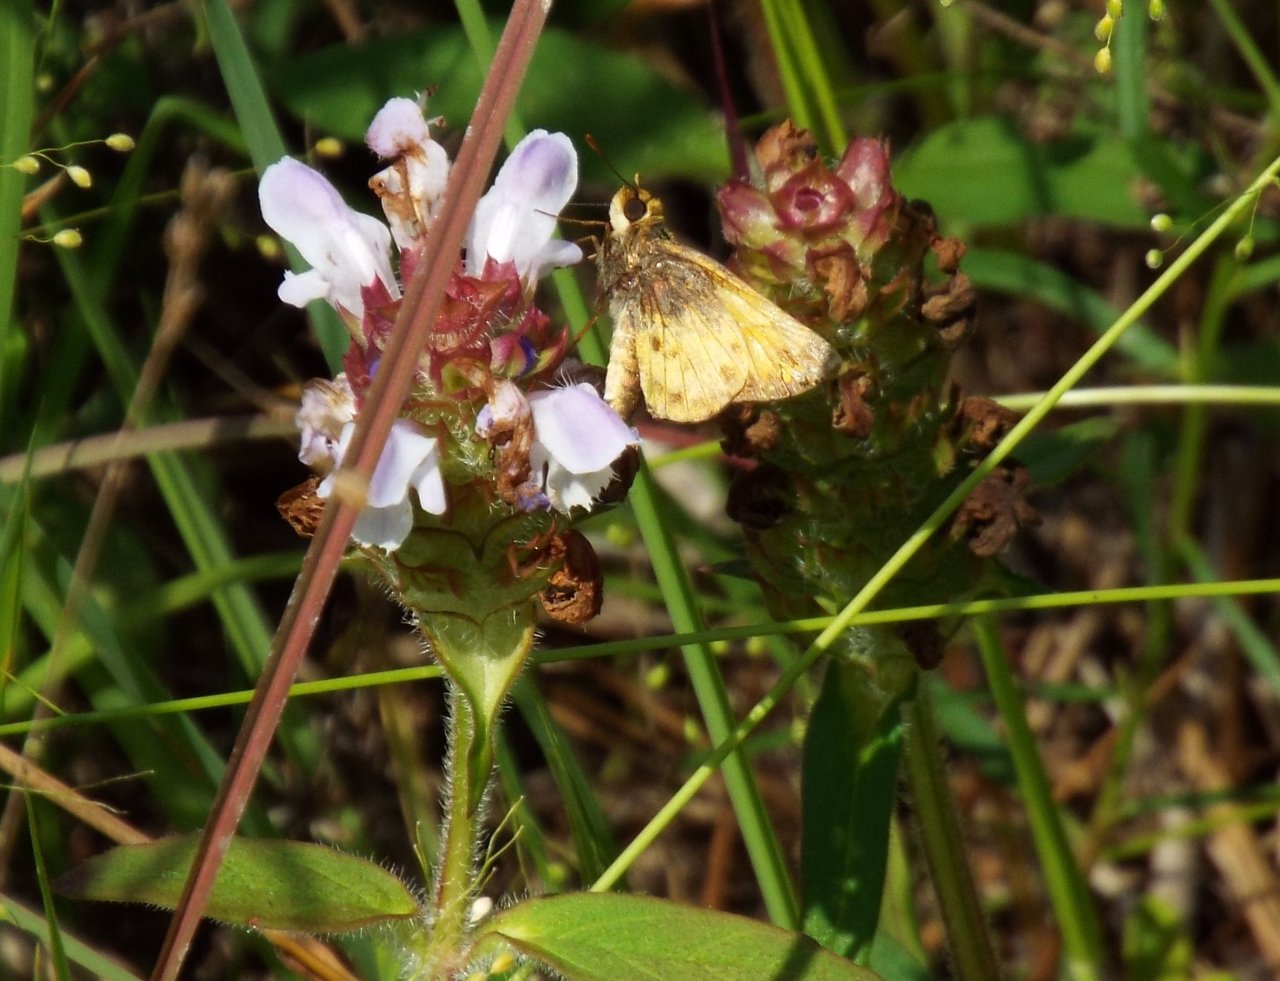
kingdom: Animalia
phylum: Arthropoda
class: Insecta
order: Lepidoptera
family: Hesperiidae
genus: Lon
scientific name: Lon zabulon
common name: Zabulon Skipper
